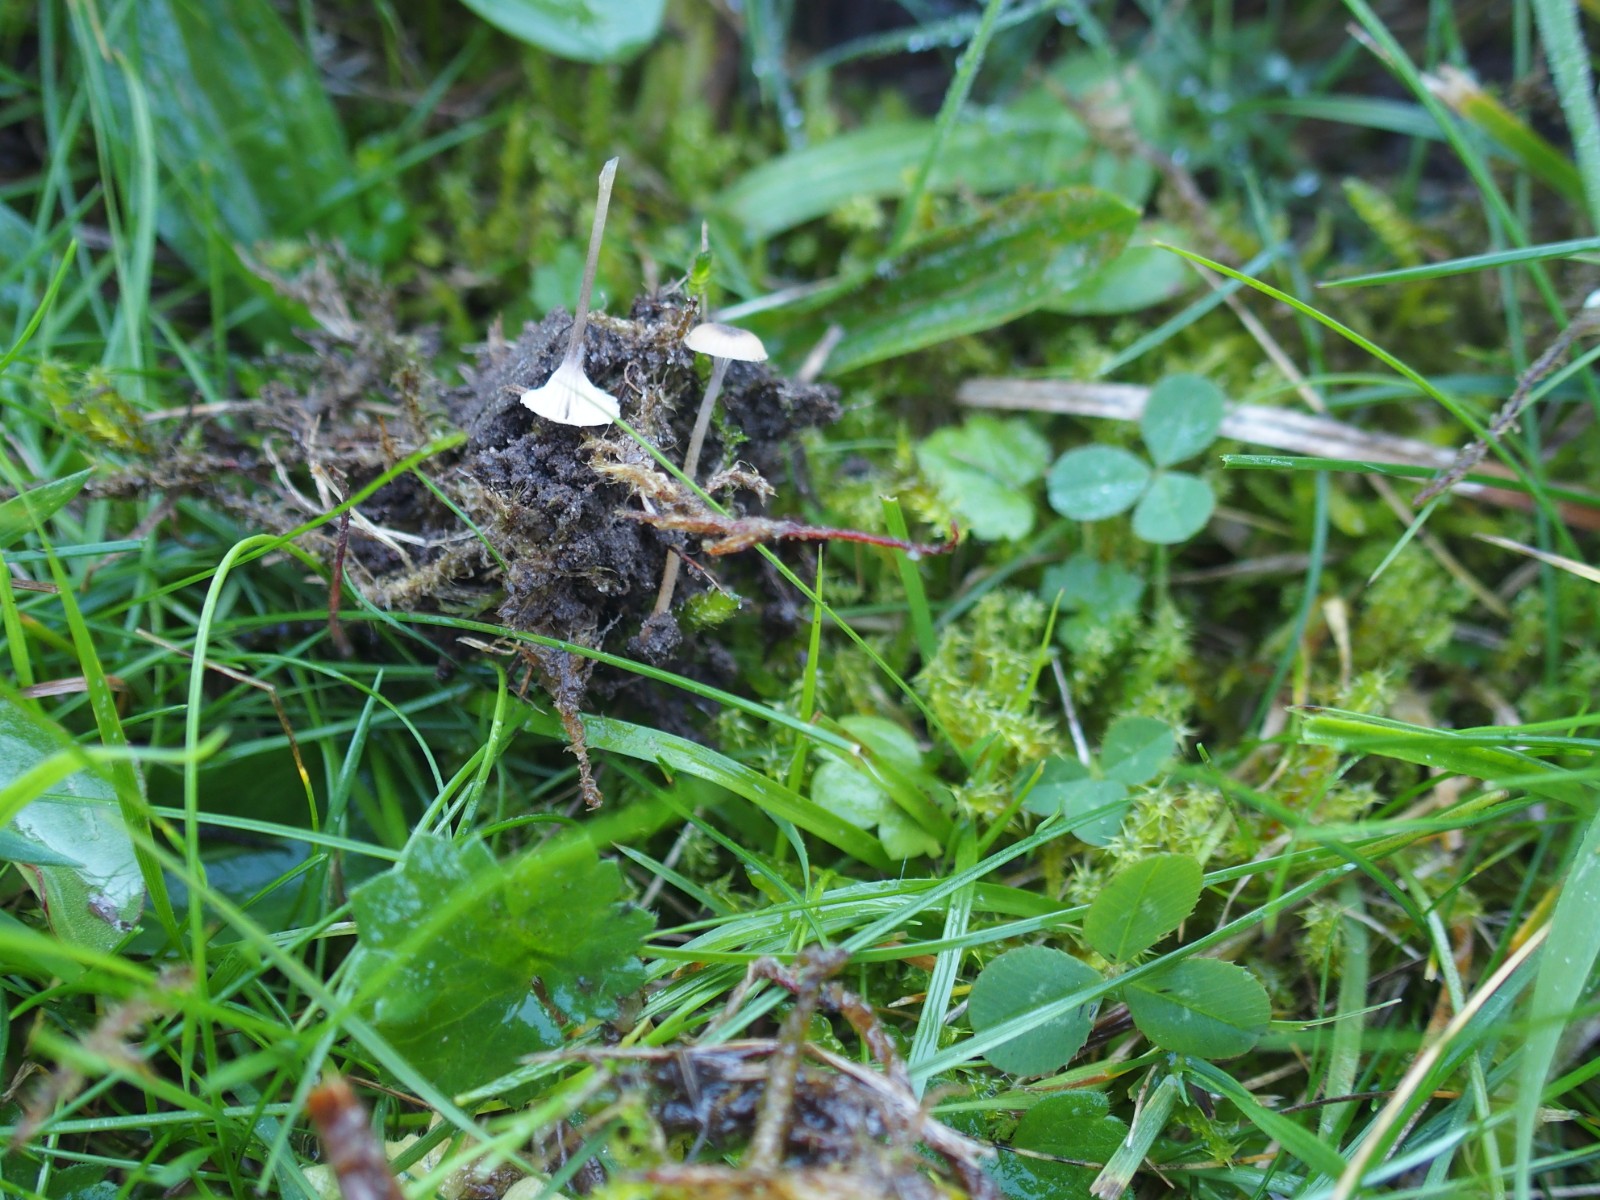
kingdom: Fungi
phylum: Basidiomycota
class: Agaricomycetes
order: Hymenochaetales
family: Rickenellaceae
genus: Rickenella
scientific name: Rickenella swartzii
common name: finstokket mosnavlehat
